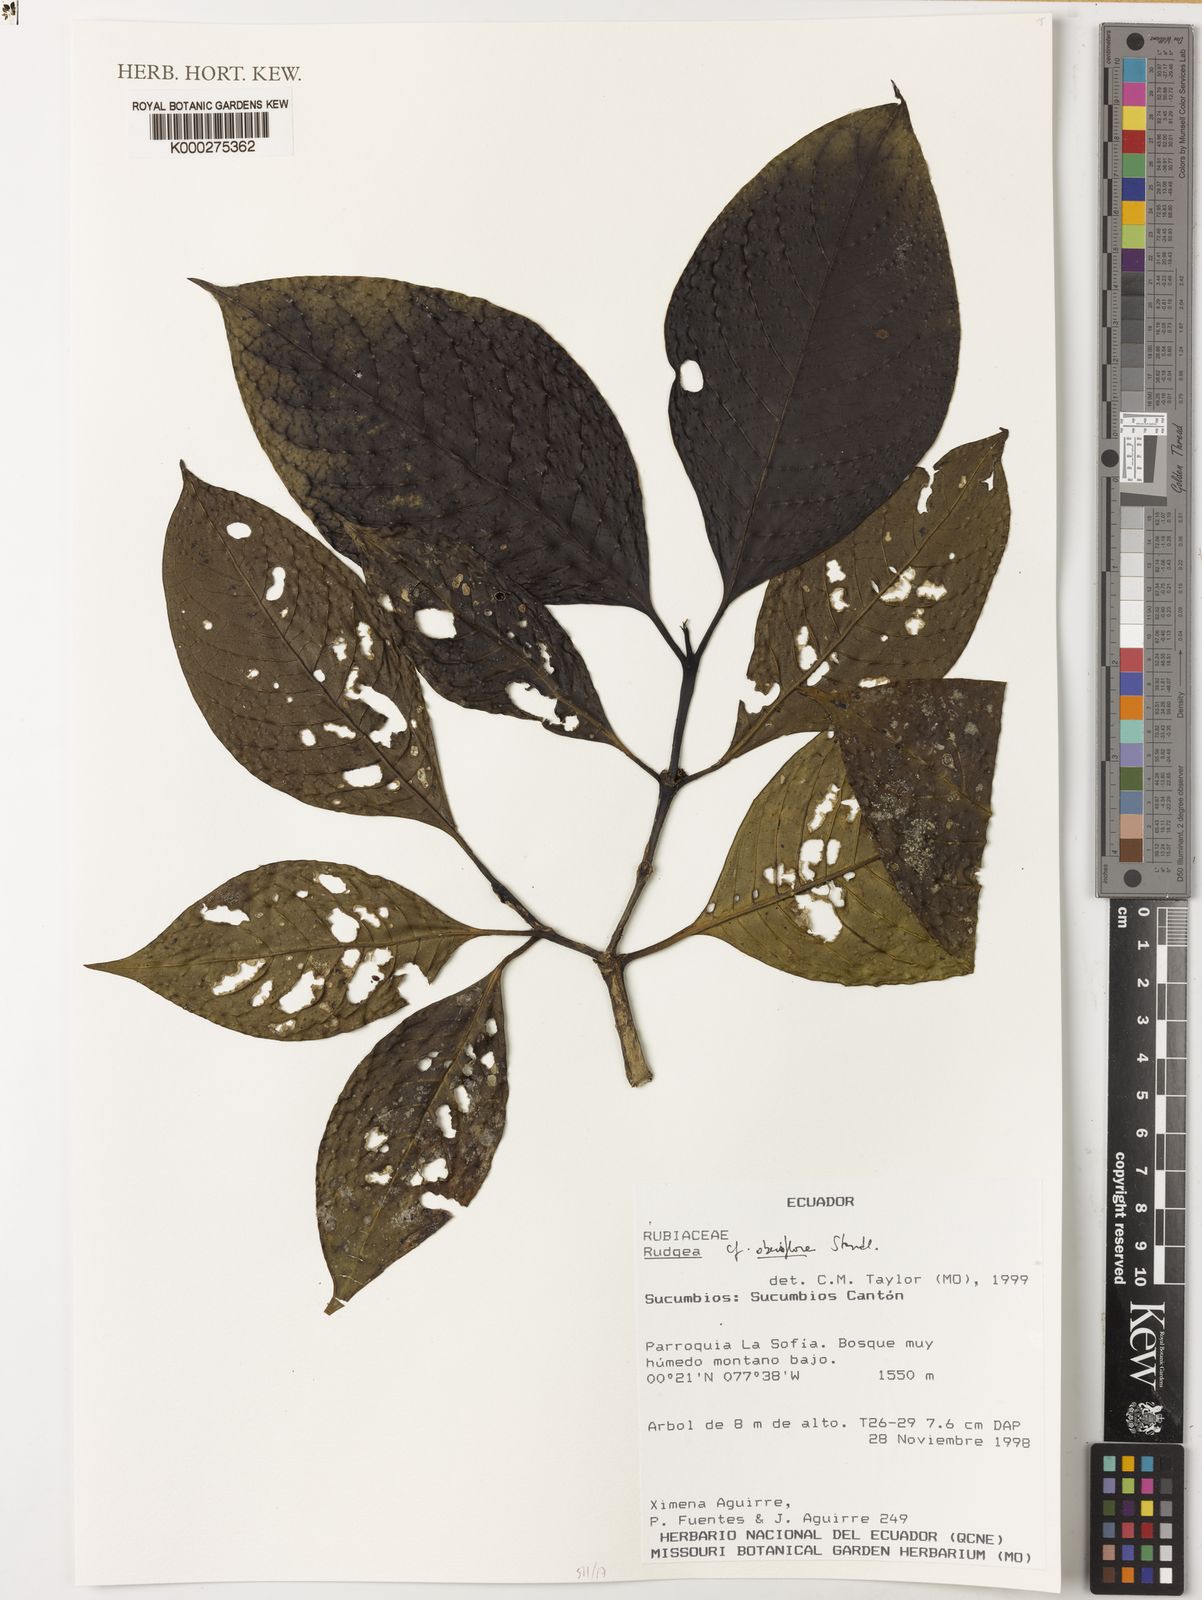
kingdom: Plantae
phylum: Tracheophyta
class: Magnoliopsida
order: Gentianales
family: Rubiaceae
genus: Rudgea
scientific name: Rudgea obesiflora
